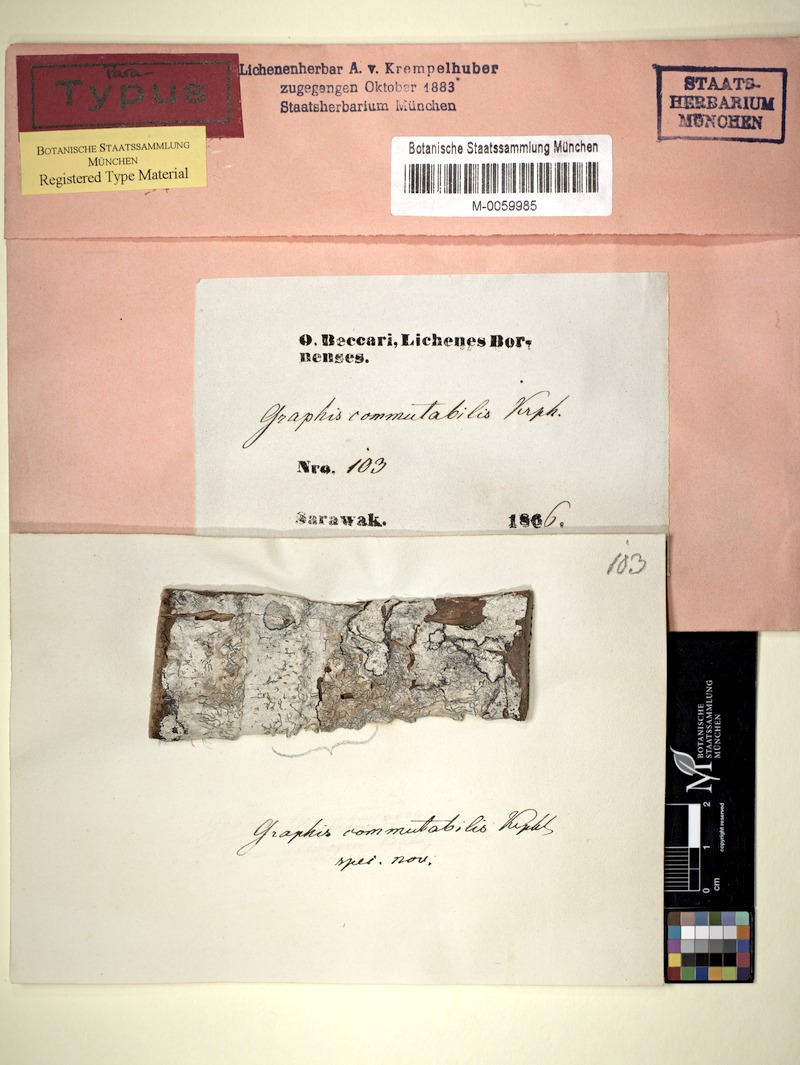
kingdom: Fungi
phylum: Ascomycota
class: Lecanoromycetes
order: Ostropales
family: Graphidaceae
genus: Platygramme
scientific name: Platygramme commutabilis
